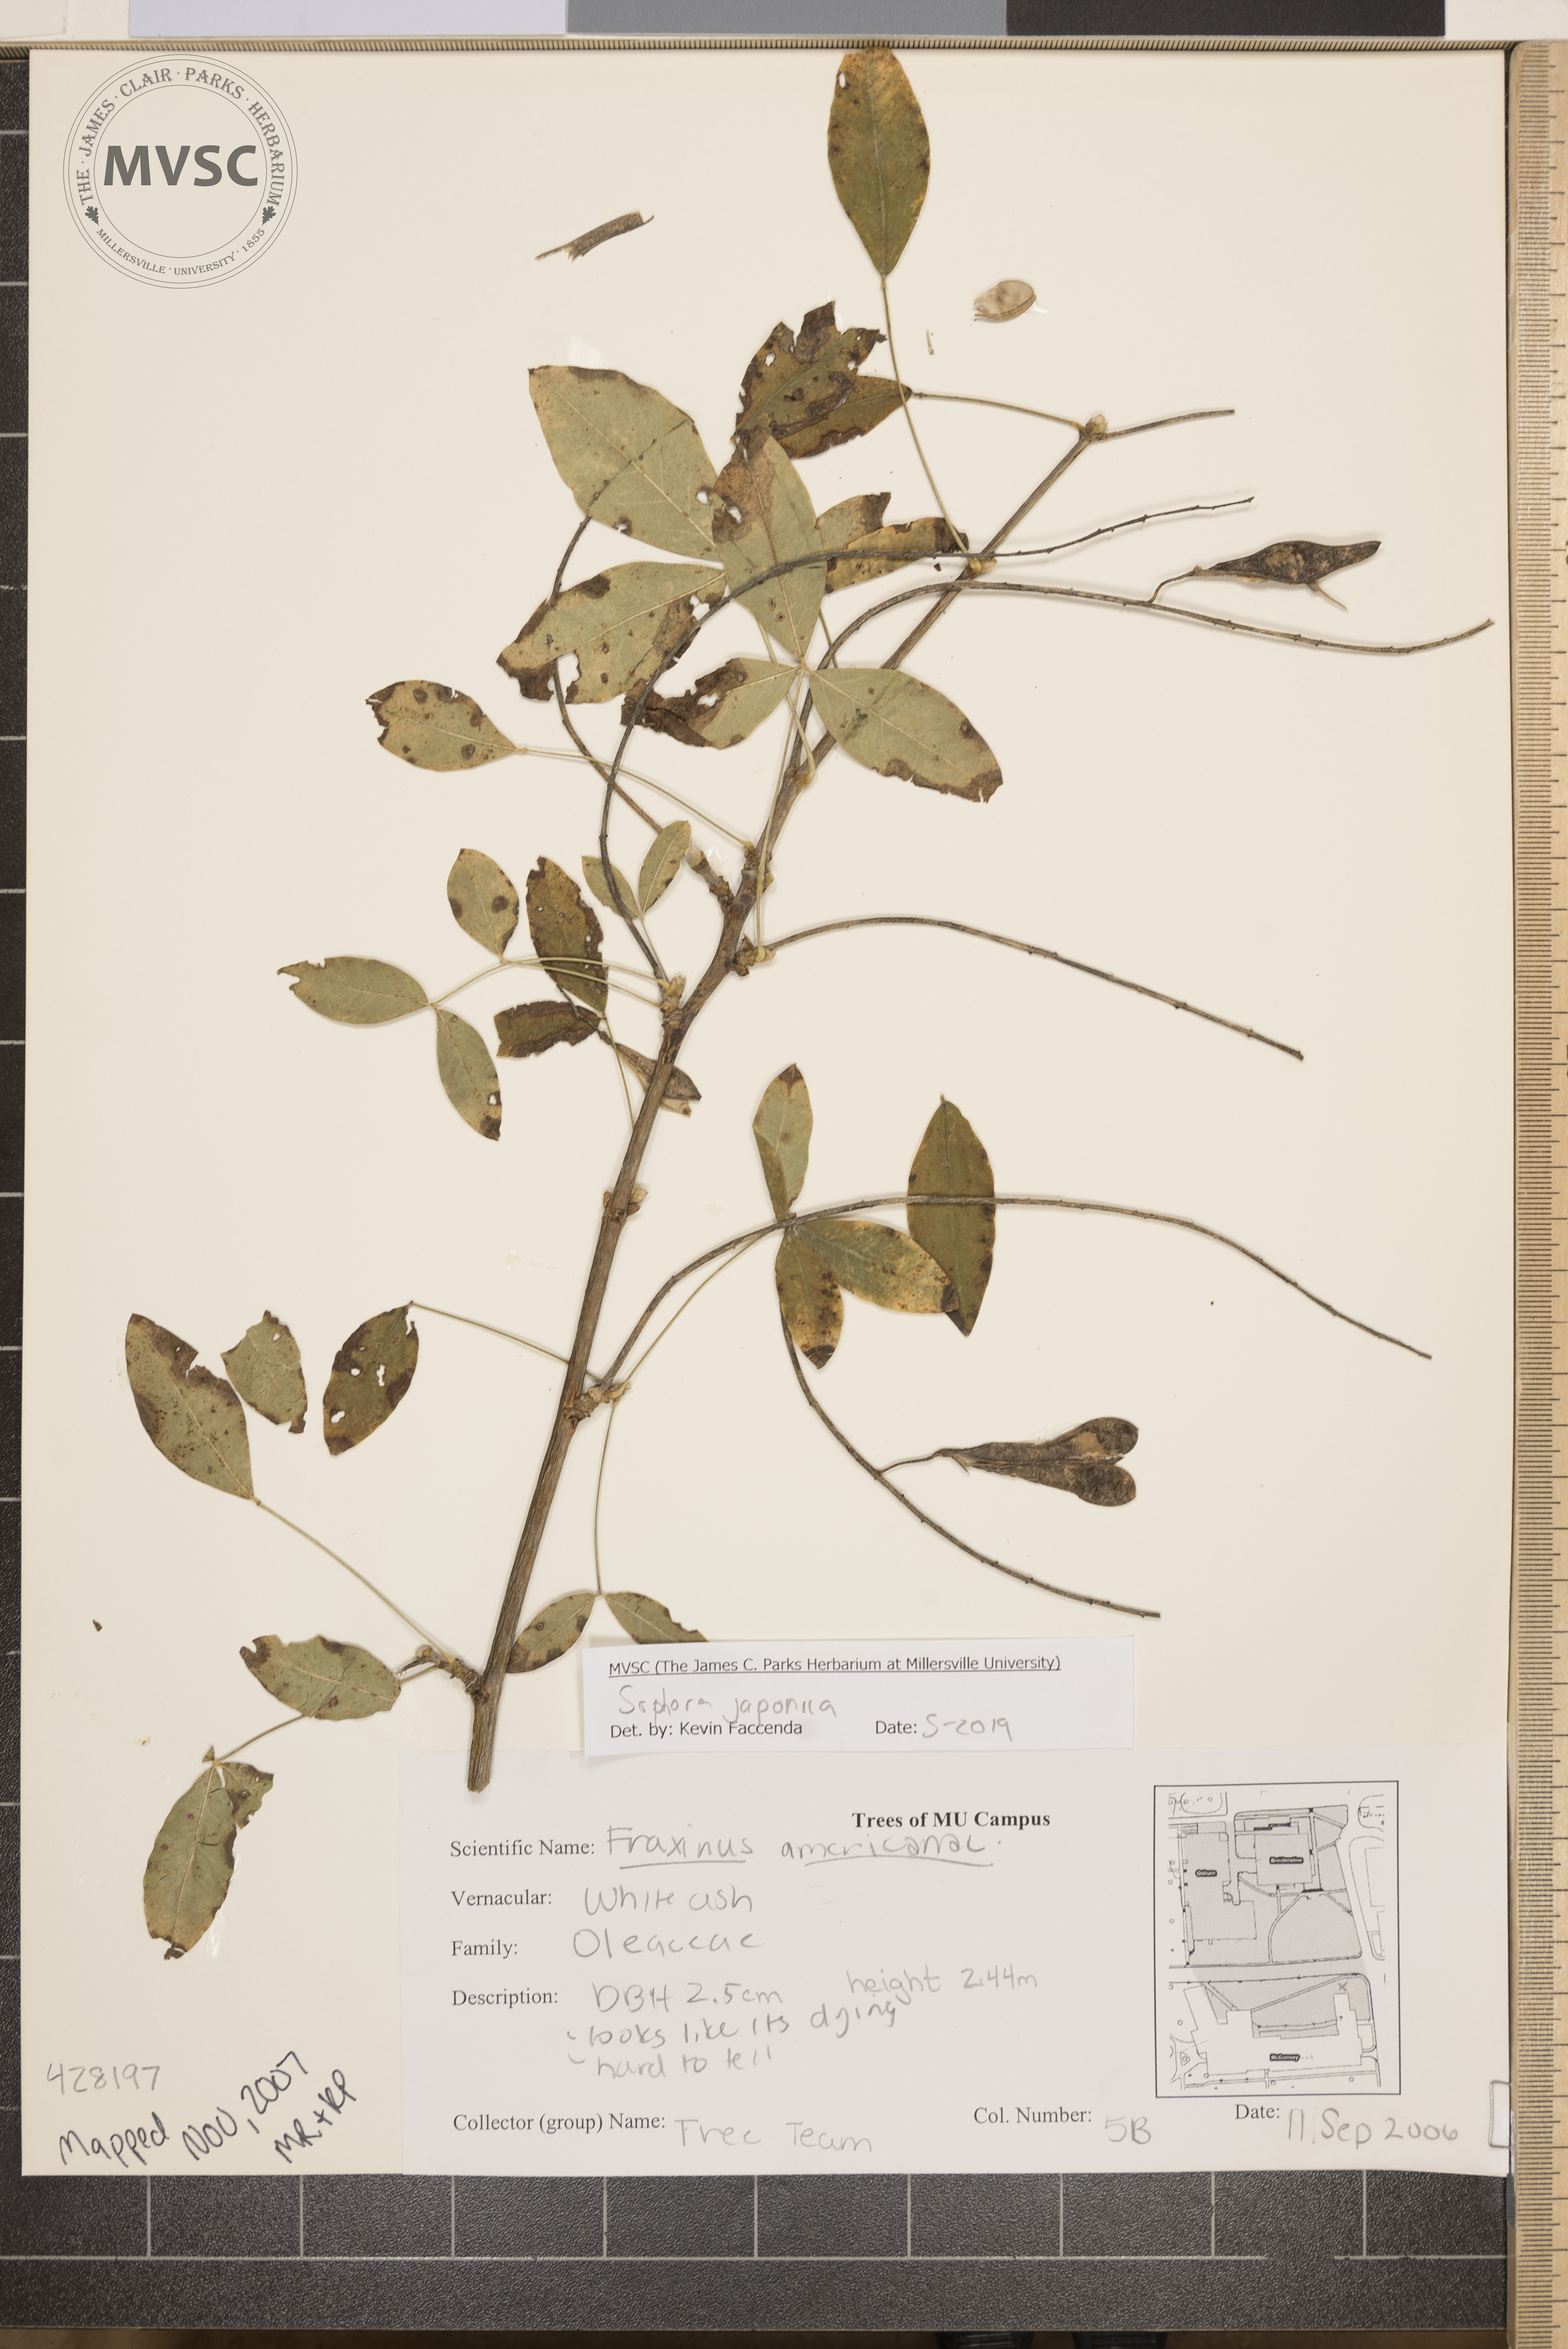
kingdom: Plantae
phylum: Tracheophyta
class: Magnoliopsida
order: Fabales
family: Fabaceae
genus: Styphnolobium
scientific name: Styphnolobium japonicum
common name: Chinese scholartree
